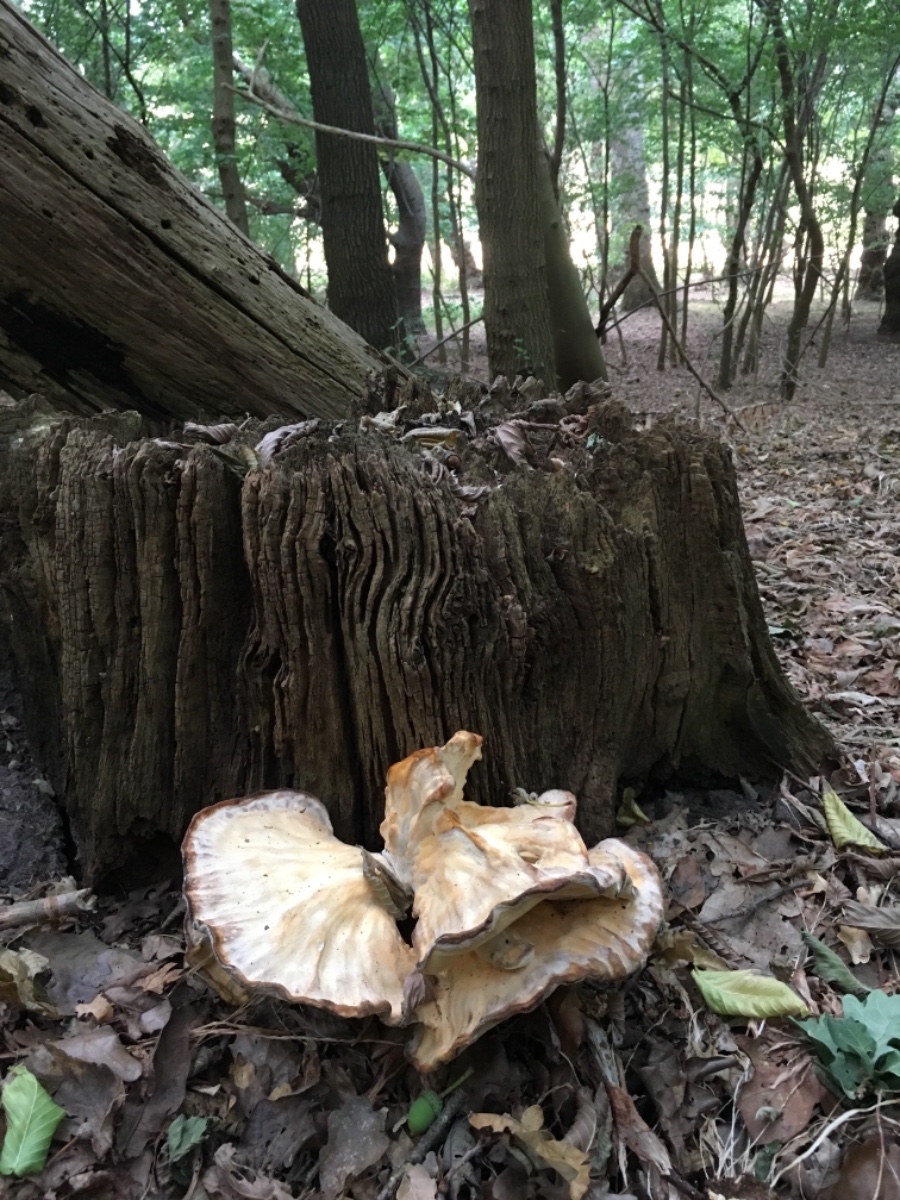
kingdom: Fungi
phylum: Basidiomycota
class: Agaricomycetes
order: Polyporales
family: Meripilaceae
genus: Meripilus
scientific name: Meripilus giganteus
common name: kæmpeporesvamp
